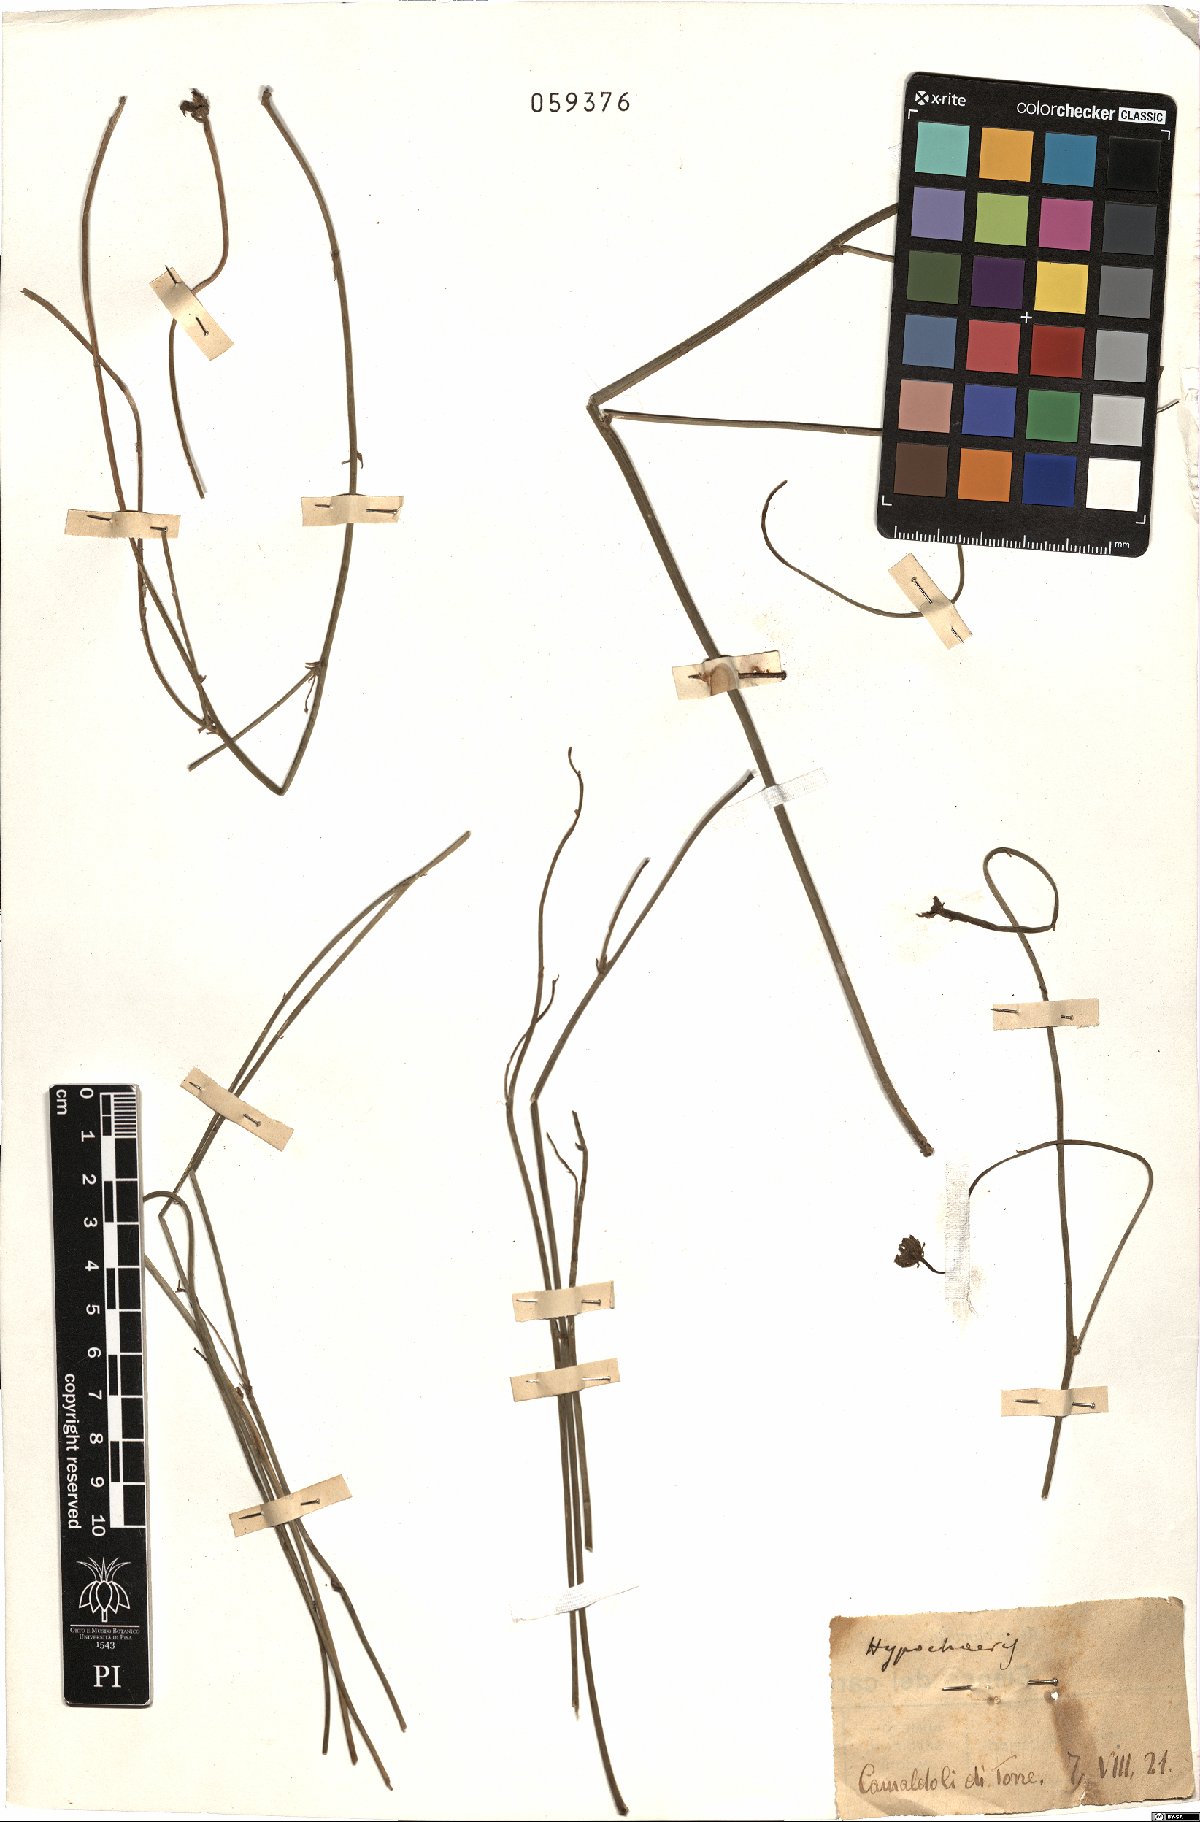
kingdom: Plantae
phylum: Tracheophyta
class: Magnoliopsida
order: Asterales
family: Asteraceae
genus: Hypochaeris
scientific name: Hypochaeris
